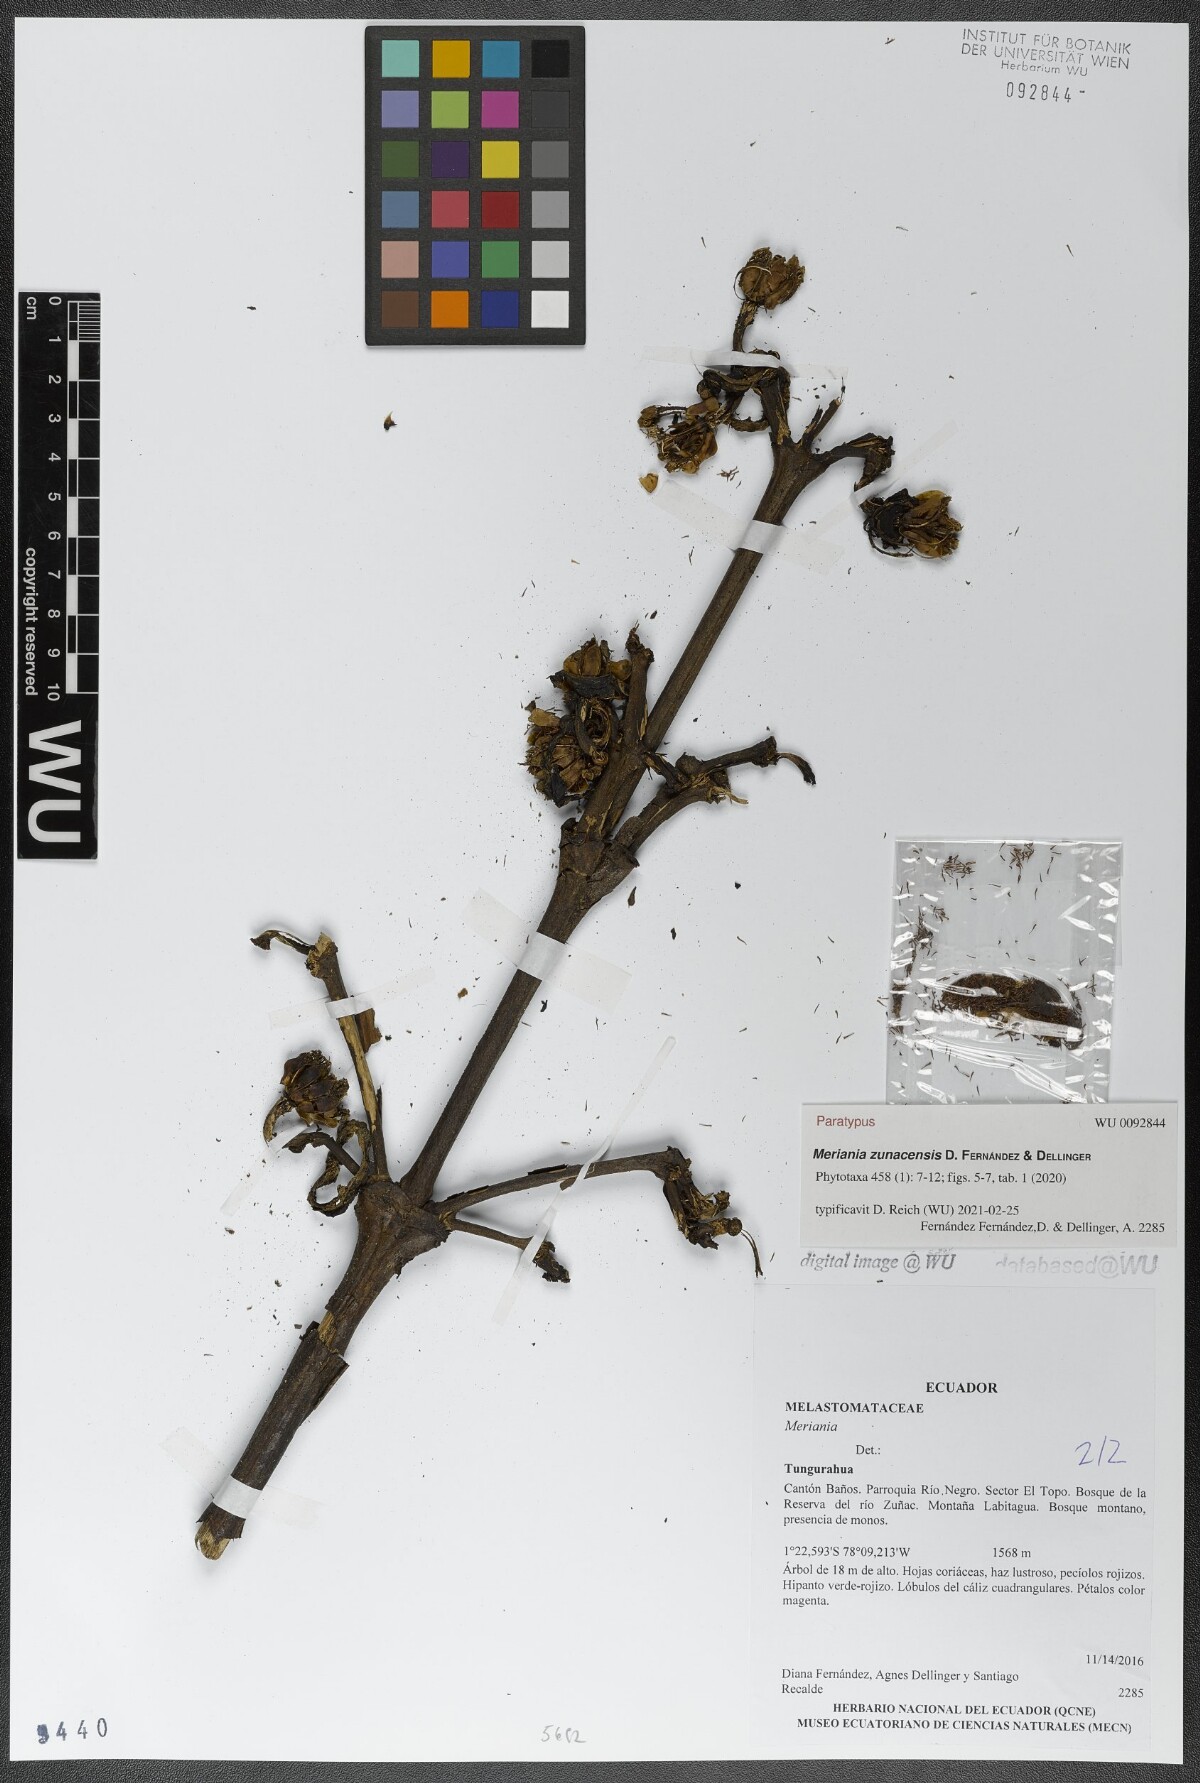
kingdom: Plantae
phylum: Tracheophyta
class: Magnoliopsida
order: Myrtales
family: Melastomataceae
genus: Meriania
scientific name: Meriania zunacensis
